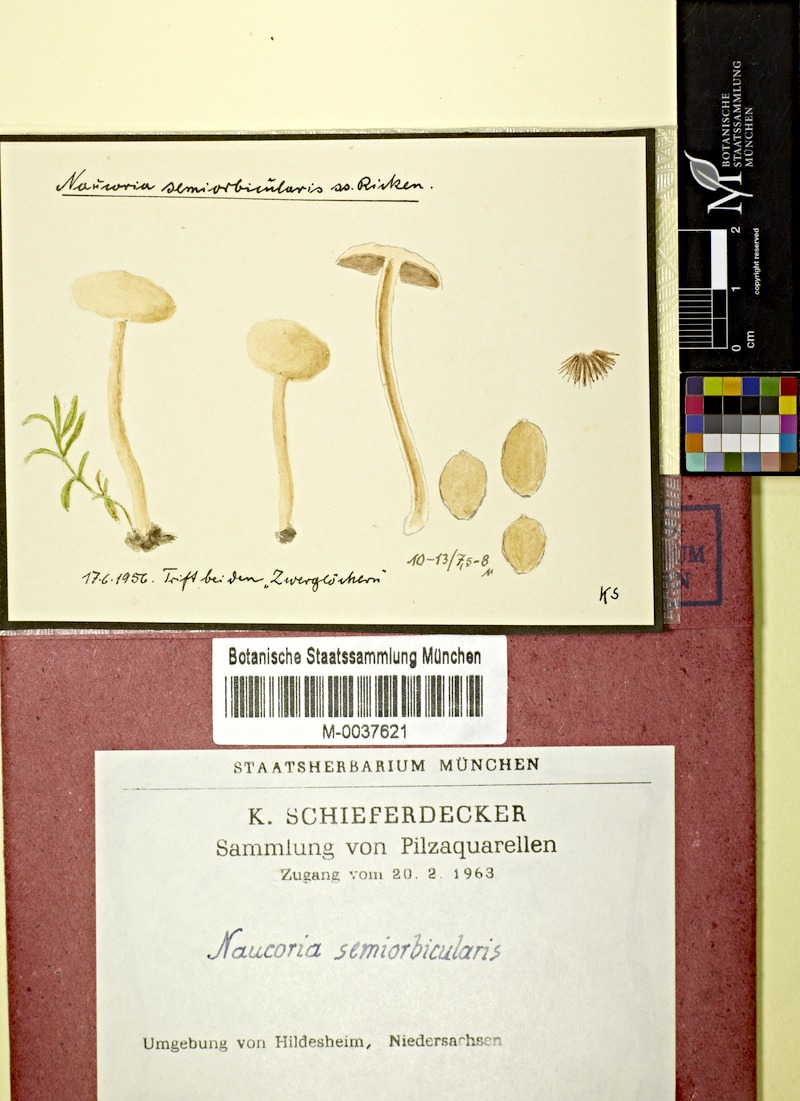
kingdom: Fungi
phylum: Basidiomycota
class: Agaricomycetes
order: Agaricales
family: Strophariaceae
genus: Agrocybe
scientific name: Agrocybe pediades
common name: Common fieldcap
